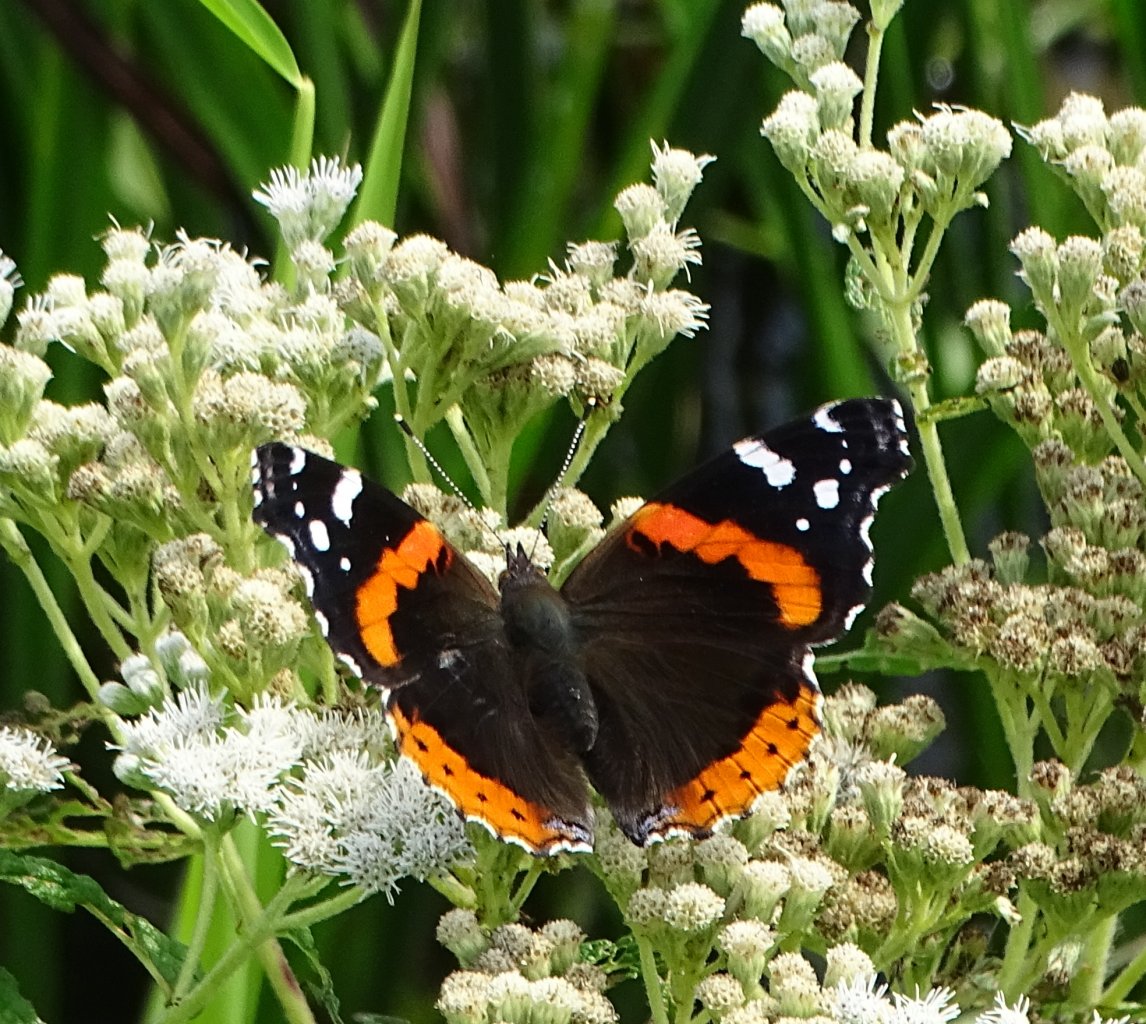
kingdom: Animalia
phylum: Arthropoda
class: Insecta
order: Lepidoptera
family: Nymphalidae
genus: Vanessa
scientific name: Vanessa atalanta
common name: Red Admiral
